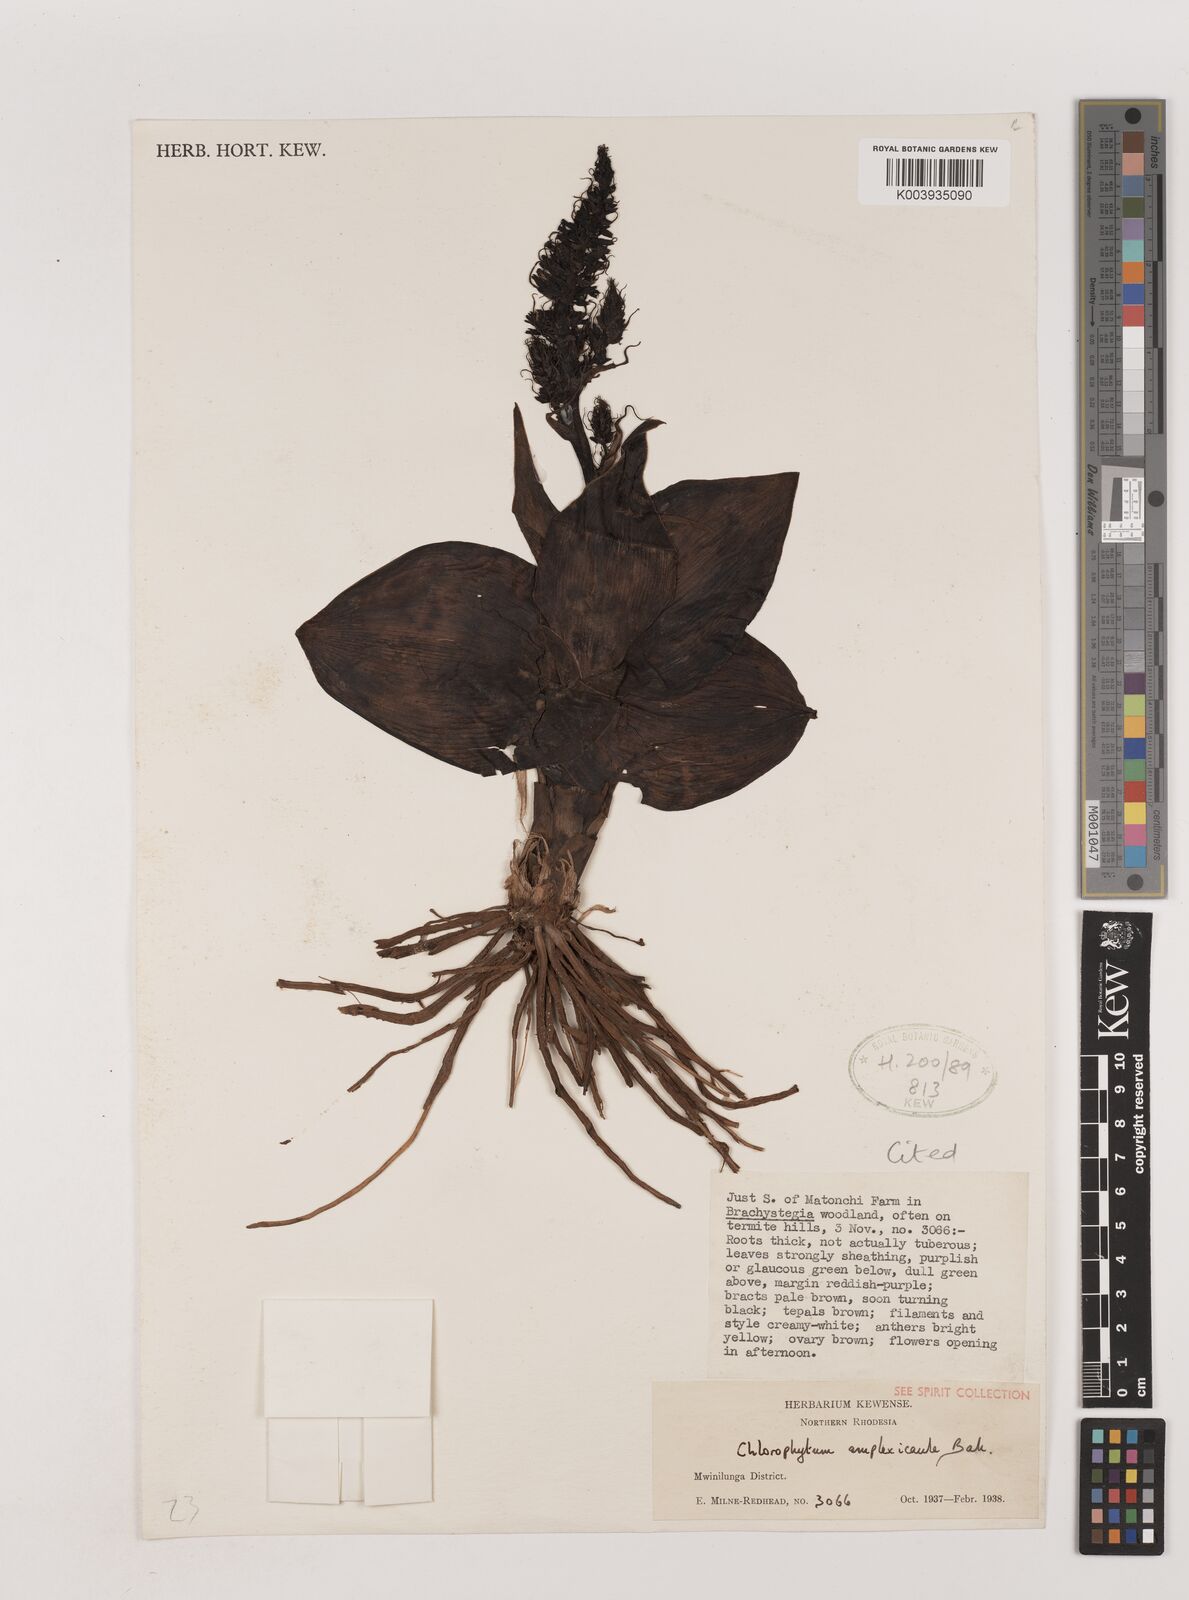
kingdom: Plantae
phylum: Tracheophyta
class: Liliopsida
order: Asparagales
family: Asparagaceae
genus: Chlorophytum
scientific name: Chlorophytum blepharophyllum
